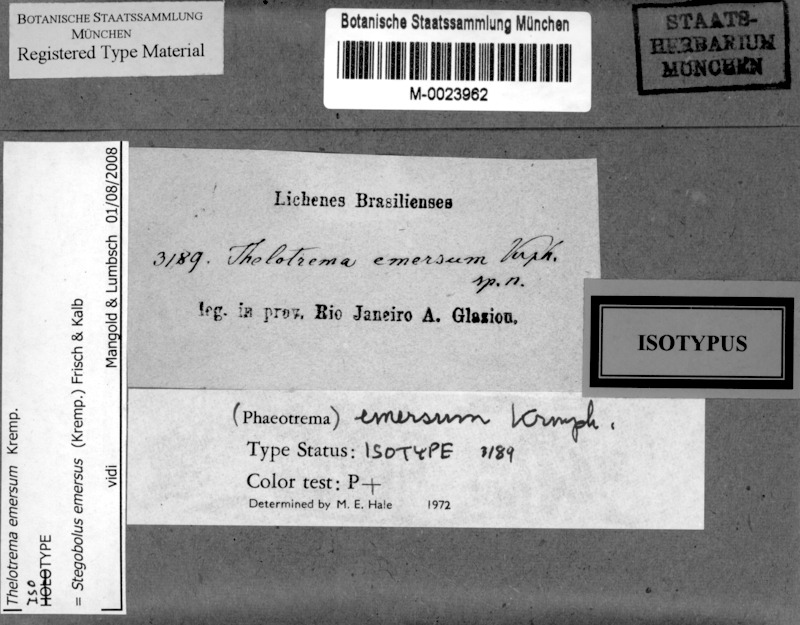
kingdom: Fungi
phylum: Ascomycota
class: Lecanoromycetes
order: Ostropales
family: Graphidaceae
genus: Rhabdodiscus
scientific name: Rhabdodiscus emersus
